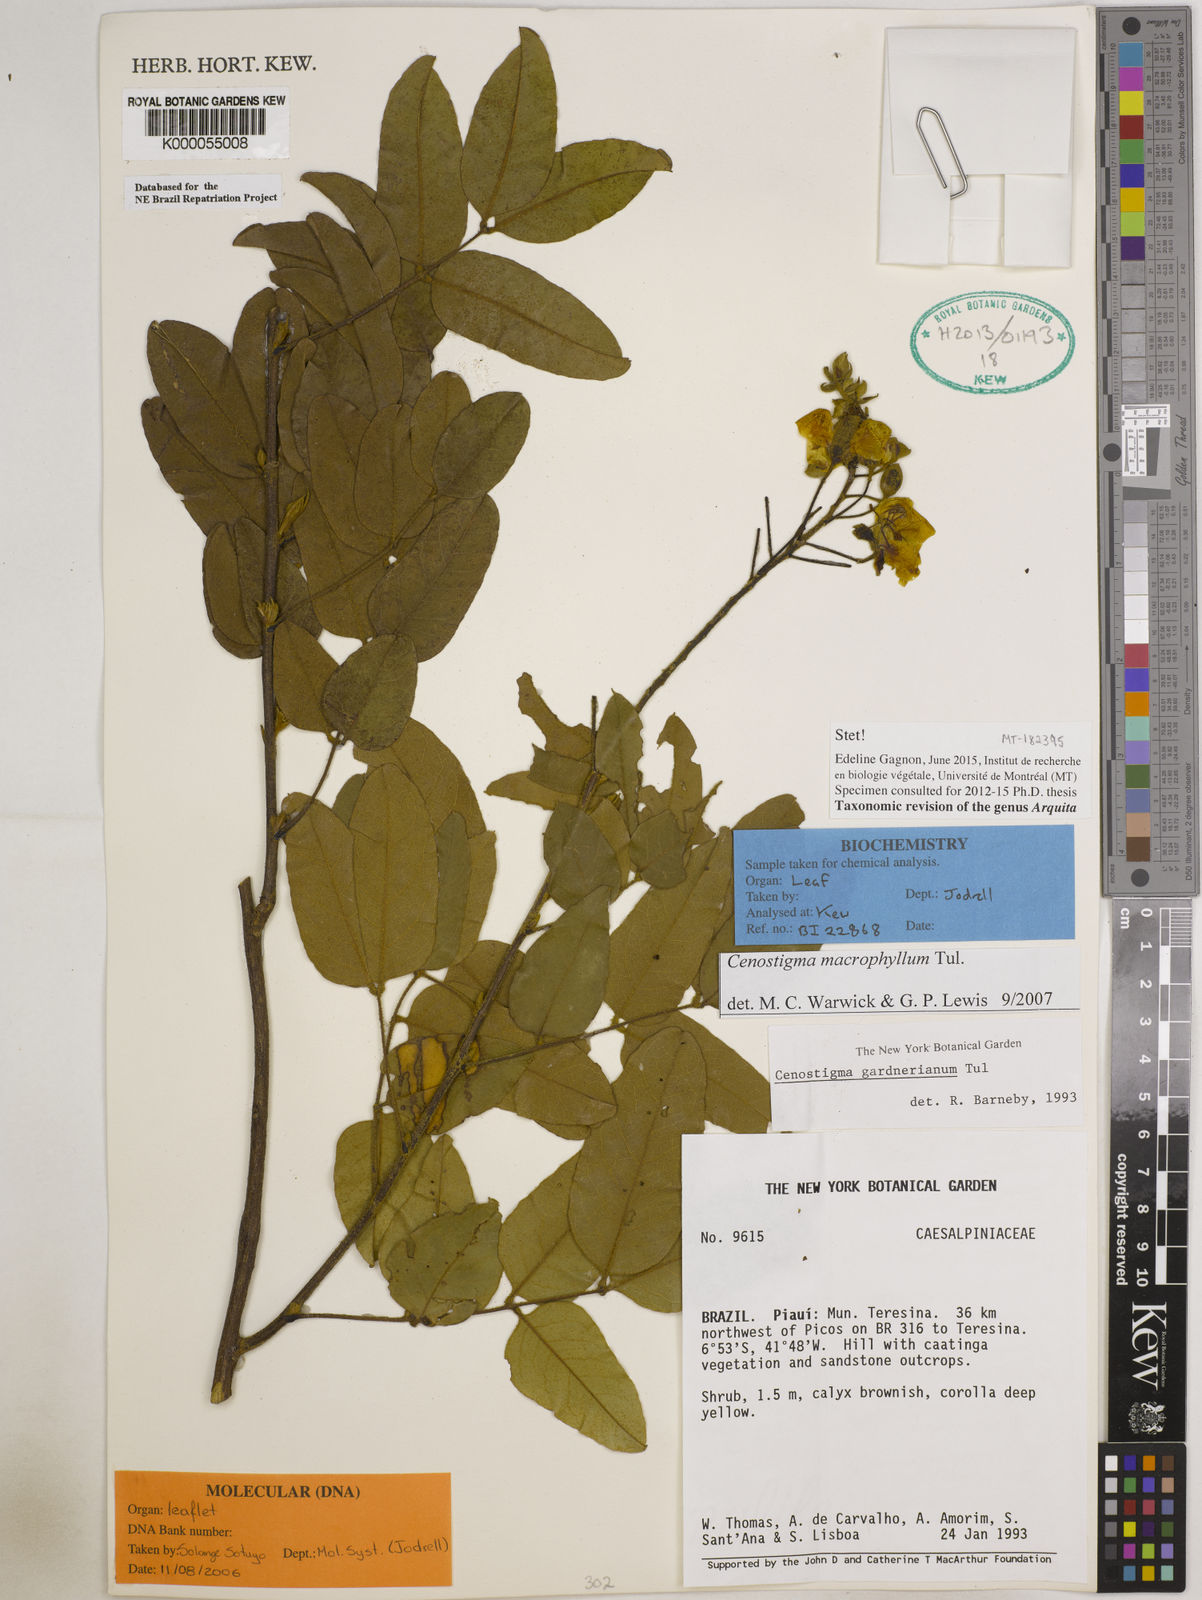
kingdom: Plantae
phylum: Tracheophyta
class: Magnoliopsida
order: Fabales
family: Fabaceae
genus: Cenostigma
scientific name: Cenostigma macrophyllum
